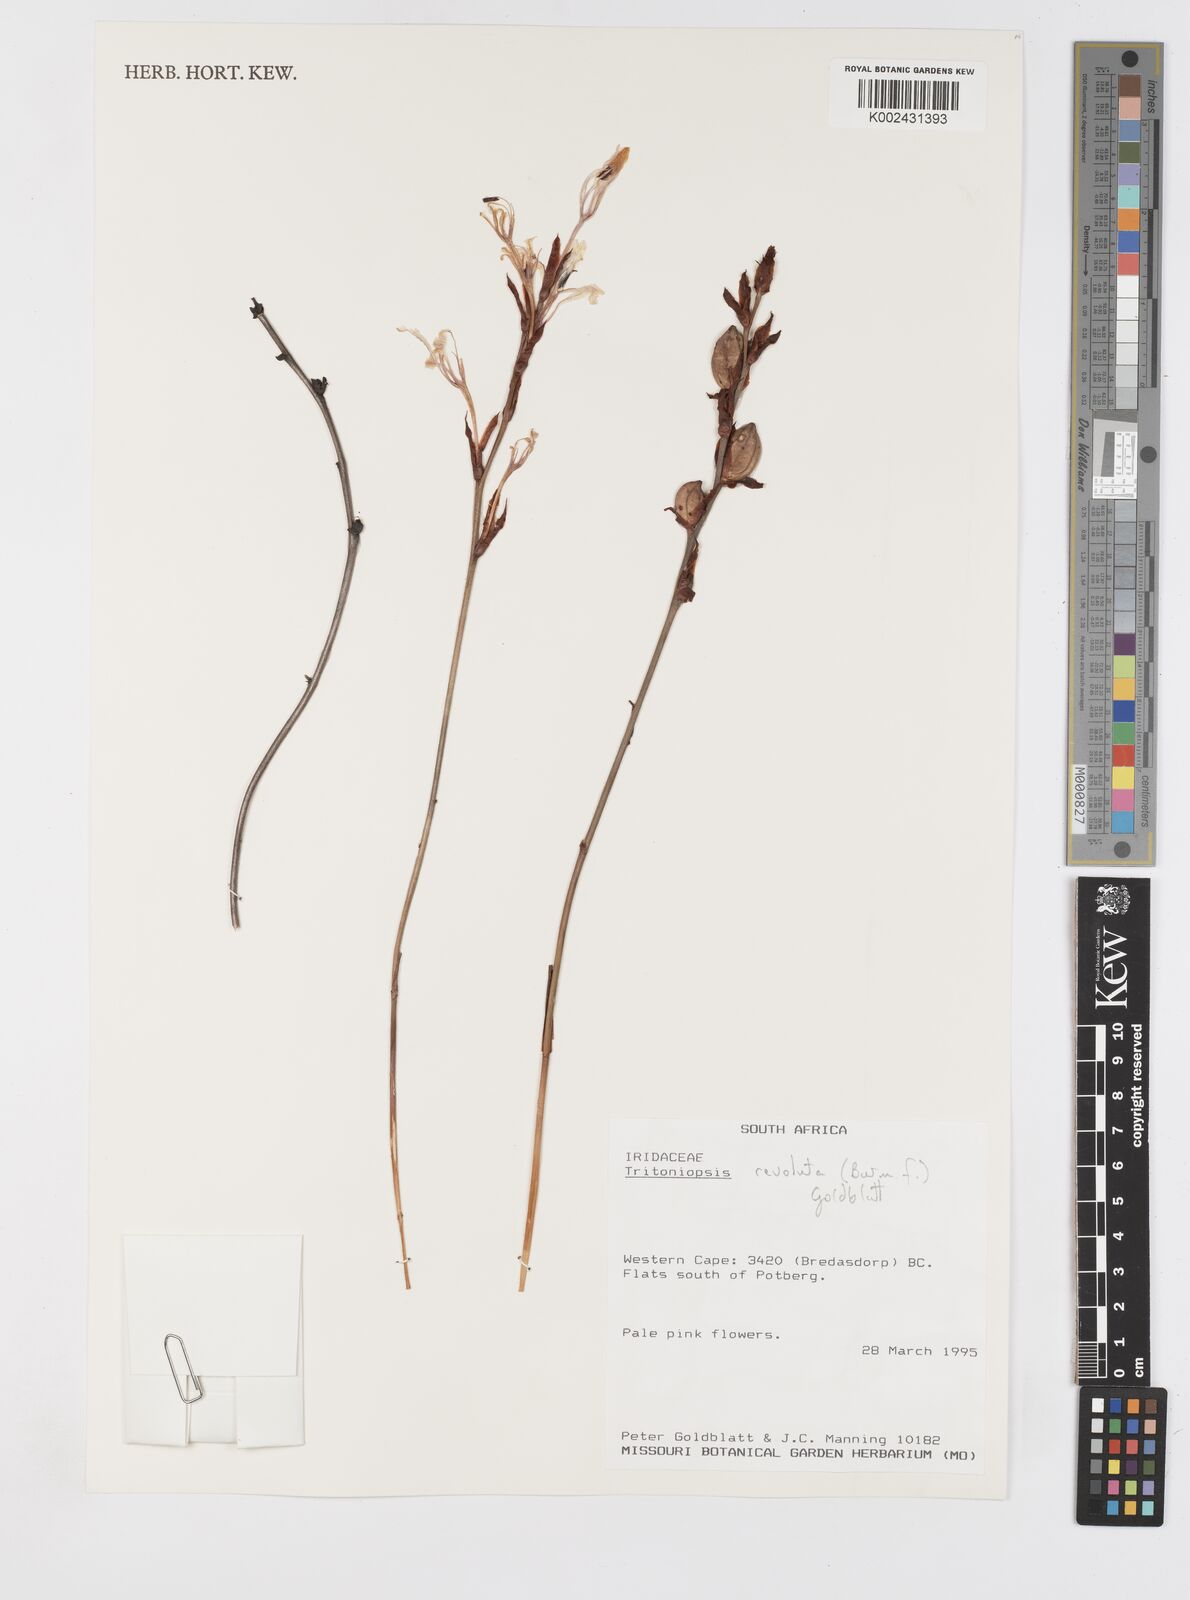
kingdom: Plantae
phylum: Tracheophyta
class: Liliopsida
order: Asparagales
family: Iridaceae
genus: Tritoniopsis
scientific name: Tritoniopsis revoluta
